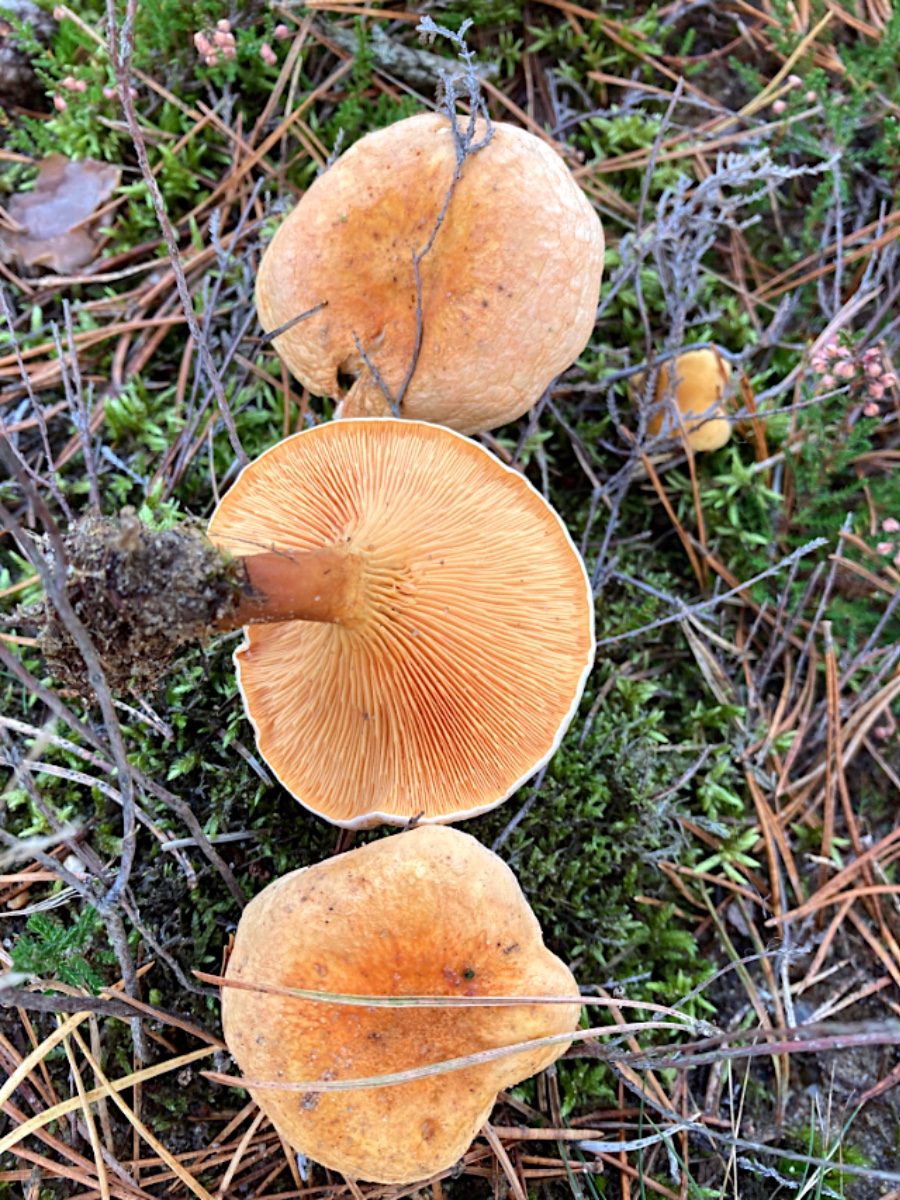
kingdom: Fungi
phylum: Basidiomycota
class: Agaricomycetes
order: Boletales
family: Hygrophoropsidaceae
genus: Hygrophoropsis
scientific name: Hygrophoropsis aurantiaca
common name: almindelig orangekantarel
